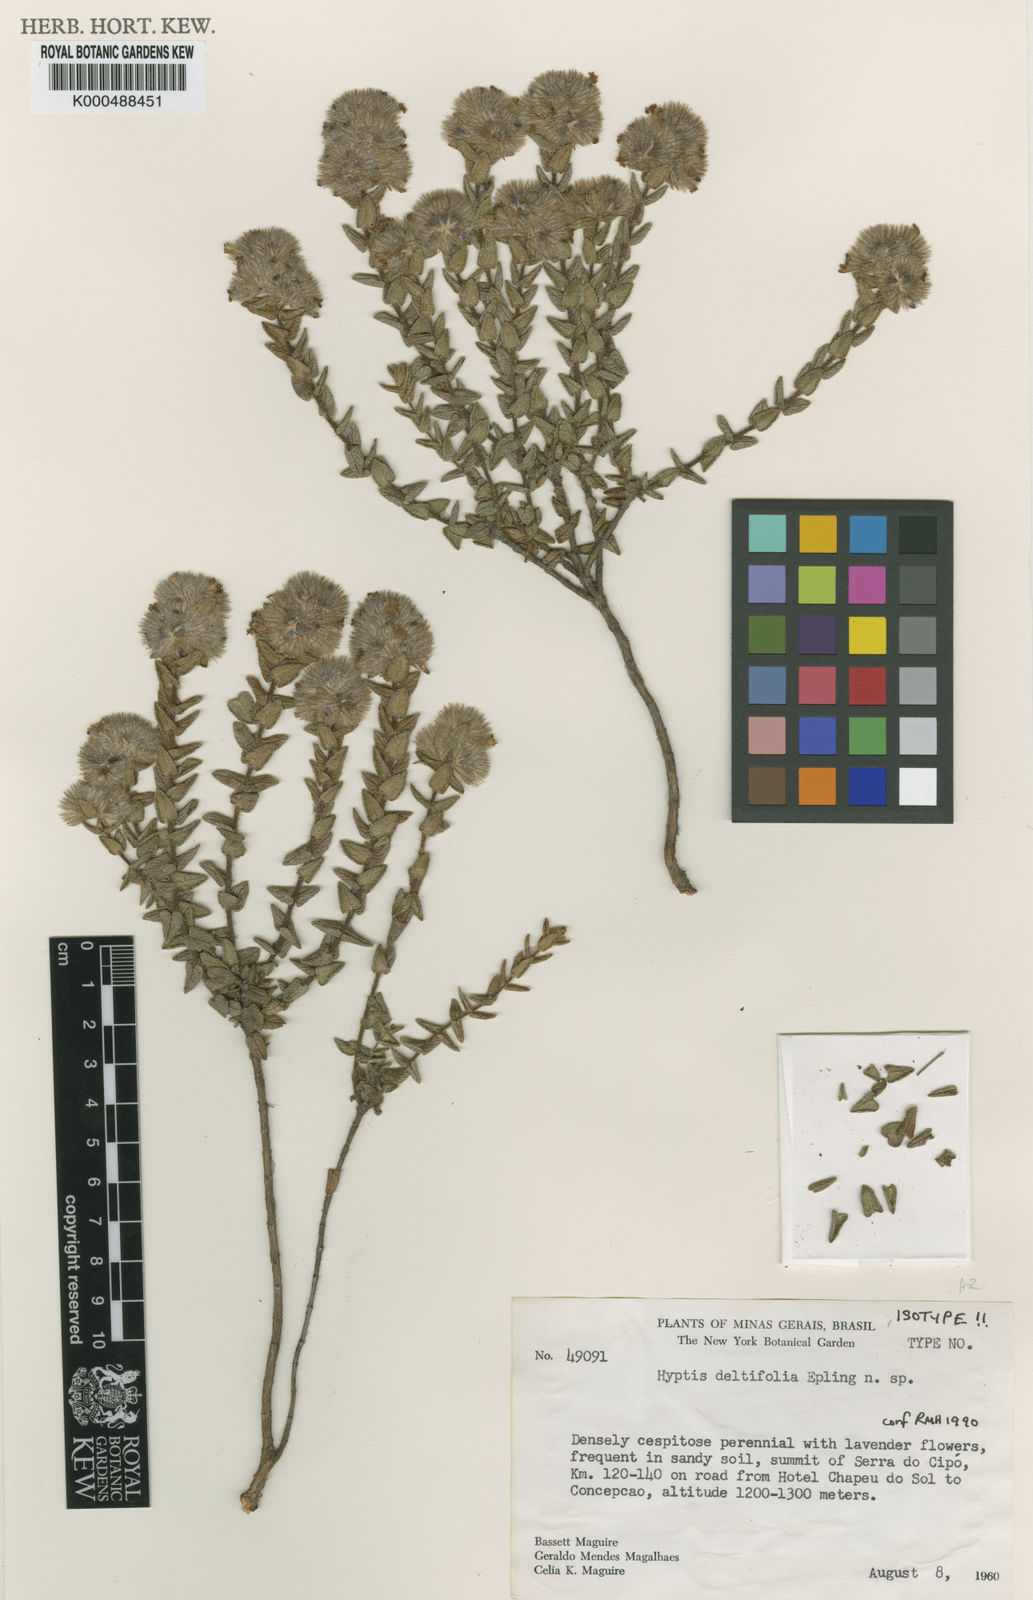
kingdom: Plantae
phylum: Tracheophyta
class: Magnoliopsida
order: Lamiales
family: Lamiaceae
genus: Hyptis
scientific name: Hyptis
